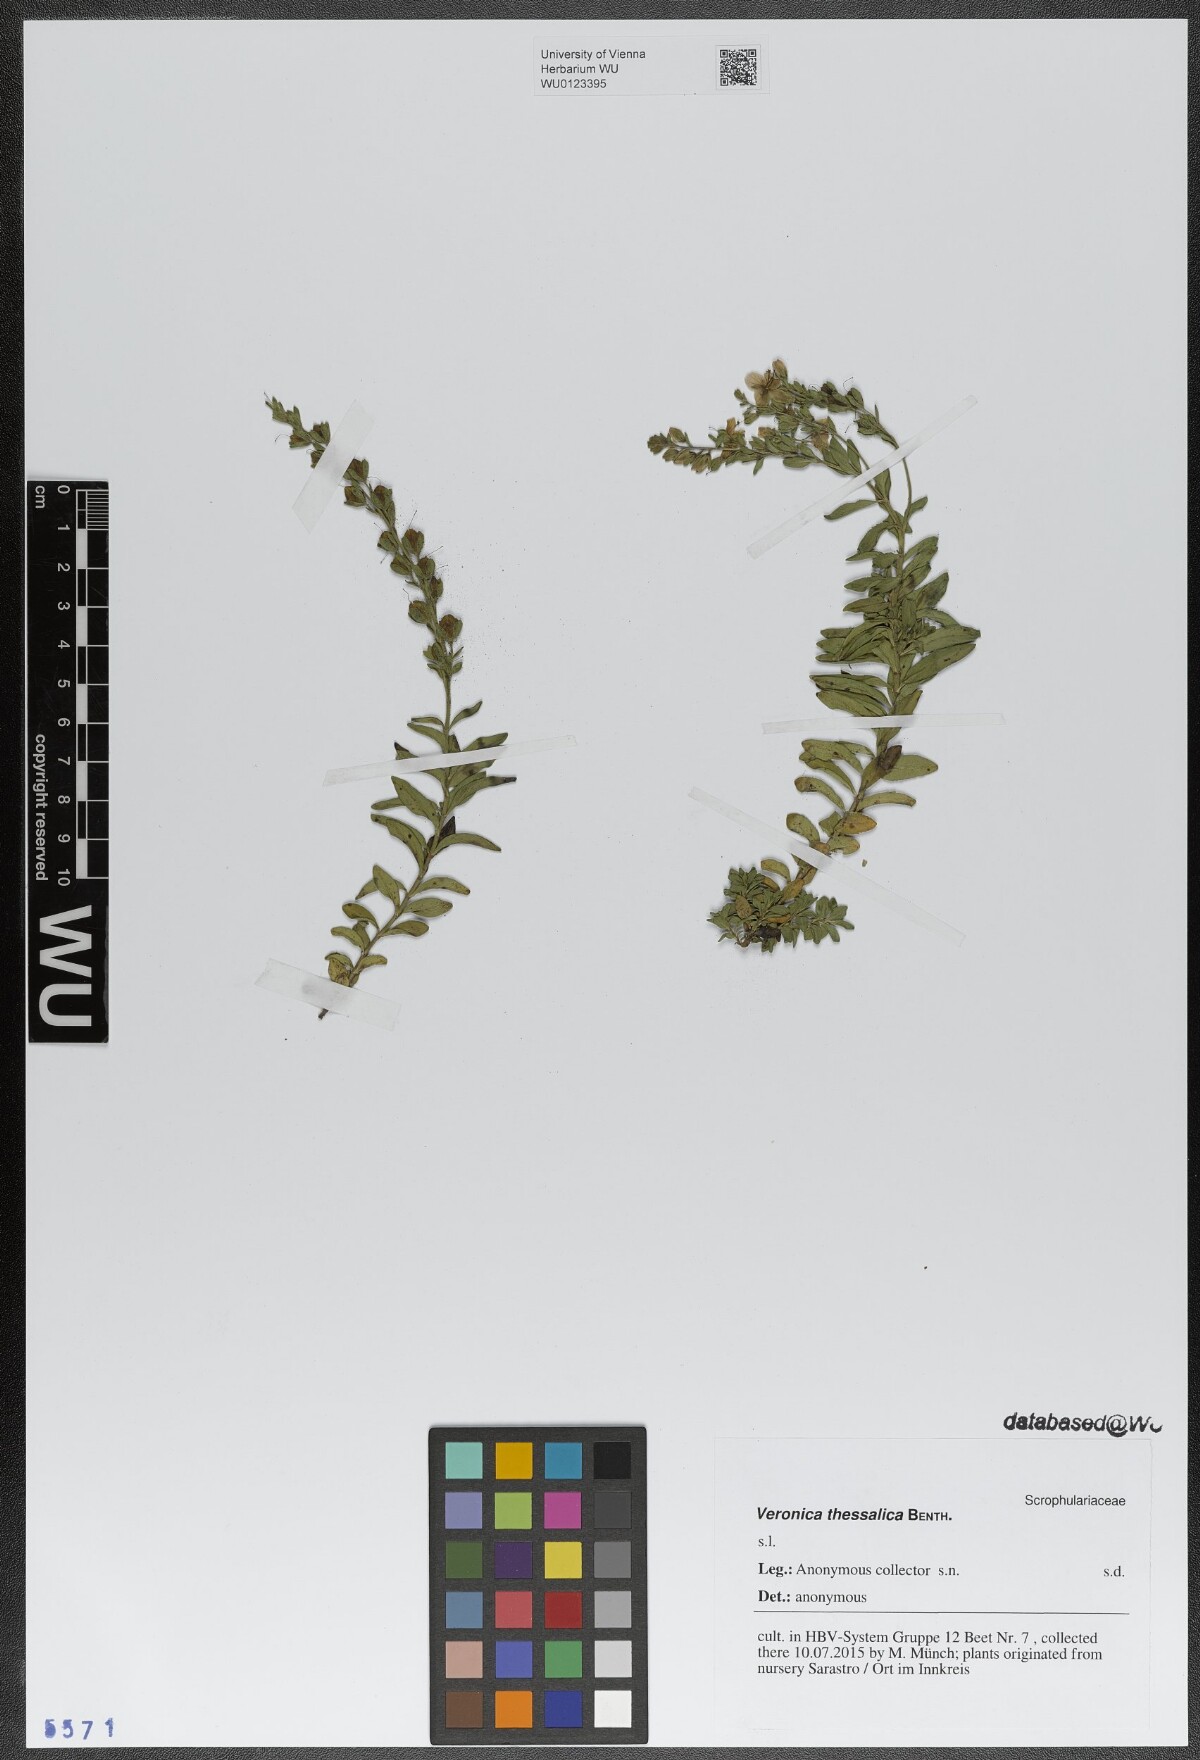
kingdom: Plantae
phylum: Tracheophyta
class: Magnoliopsida
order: Lamiales
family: Plantaginaceae
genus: Veronica
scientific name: Veronica thessalica
